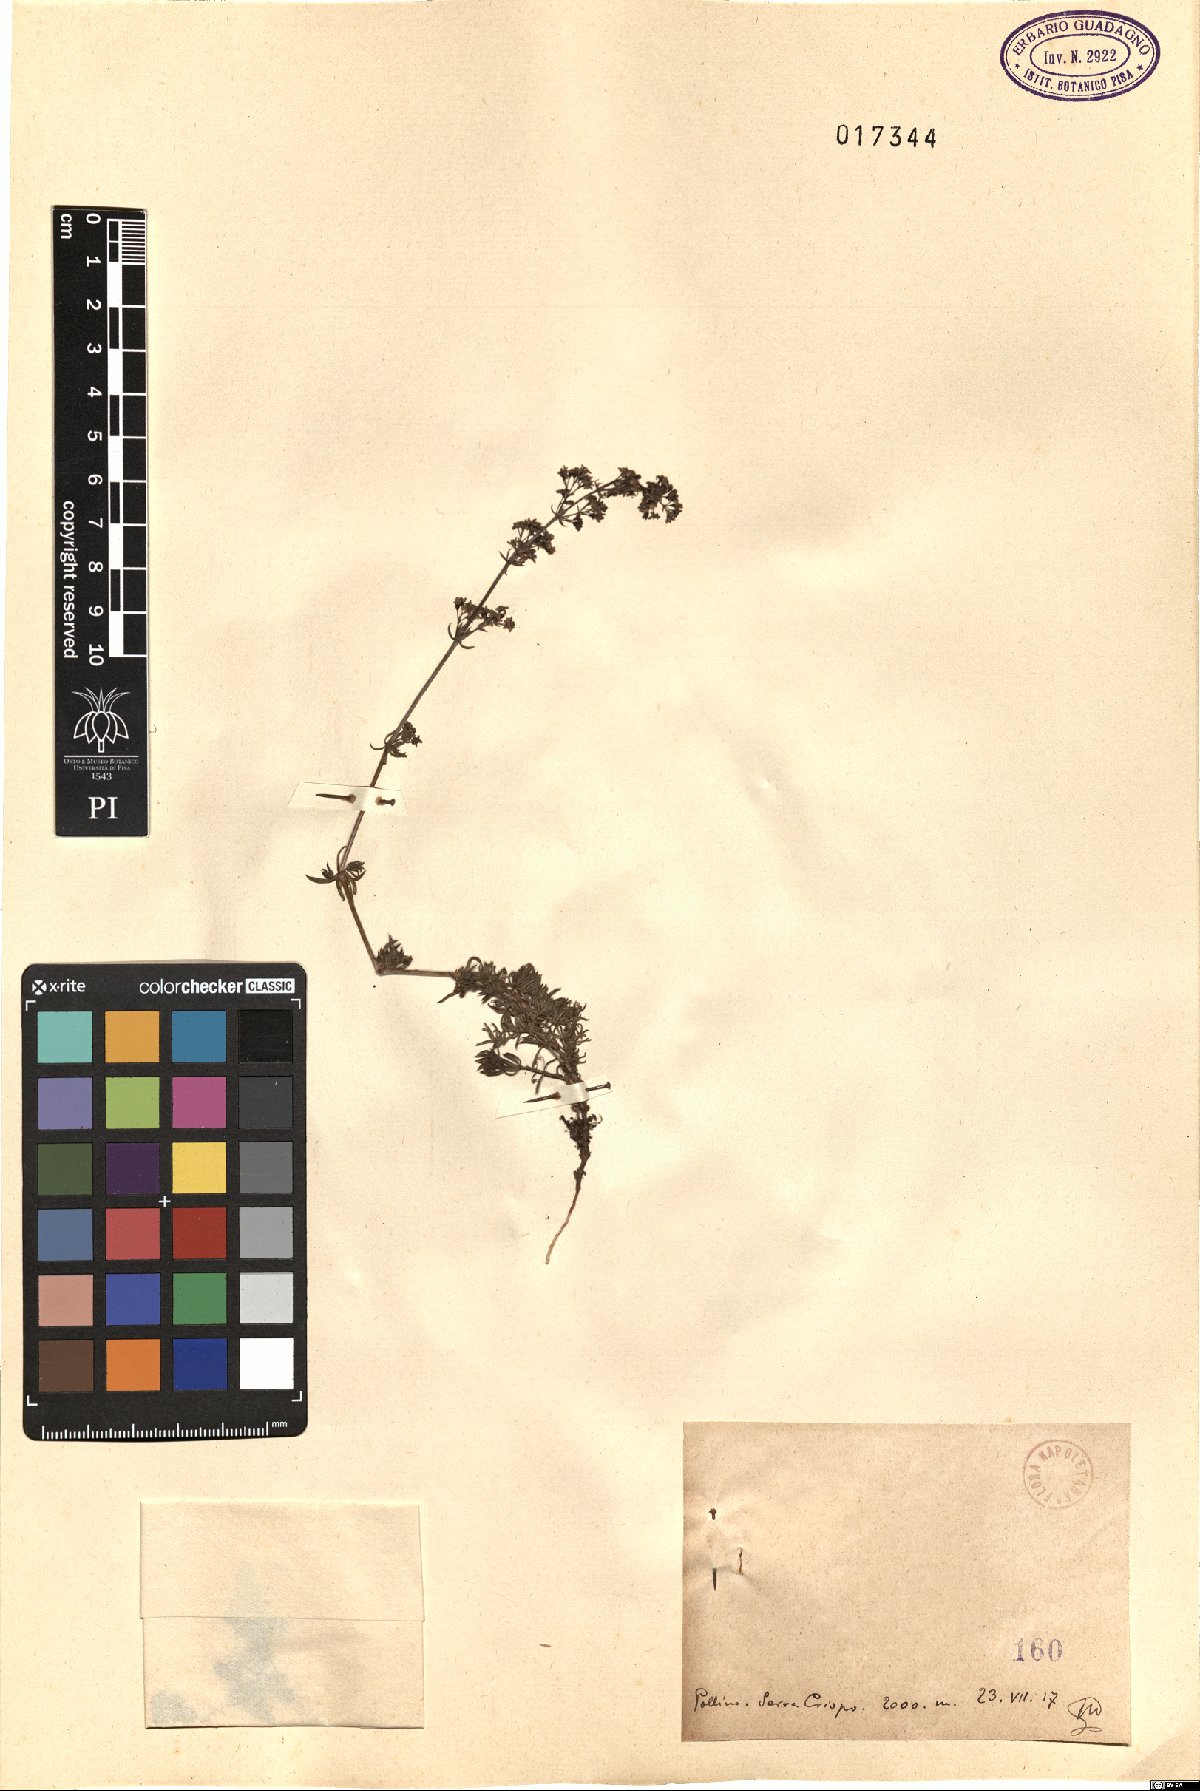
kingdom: Plantae
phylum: Tracheophyta
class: Magnoliopsida
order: Gentianales
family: Rubiaceae
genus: Galium
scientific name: Galium
